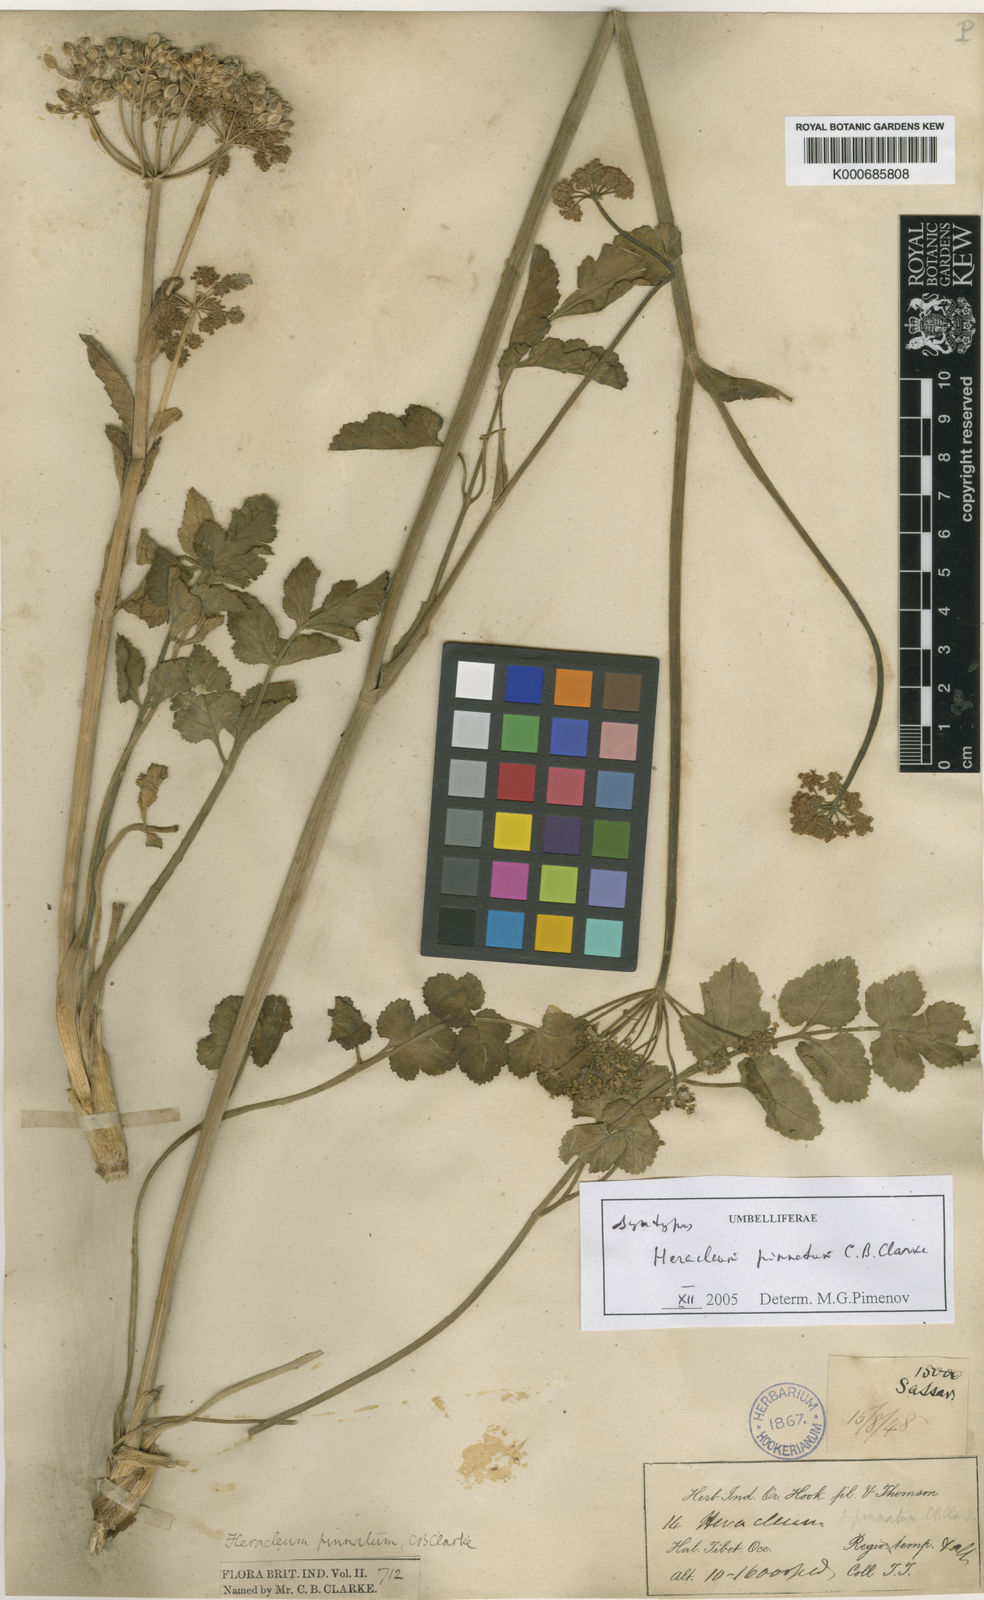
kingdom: Plantae
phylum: Tracheophyta
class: Magnoliopsida
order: Apiales
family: Apiaceae
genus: Tetrataenium
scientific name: Tetrataenium pinnatum
